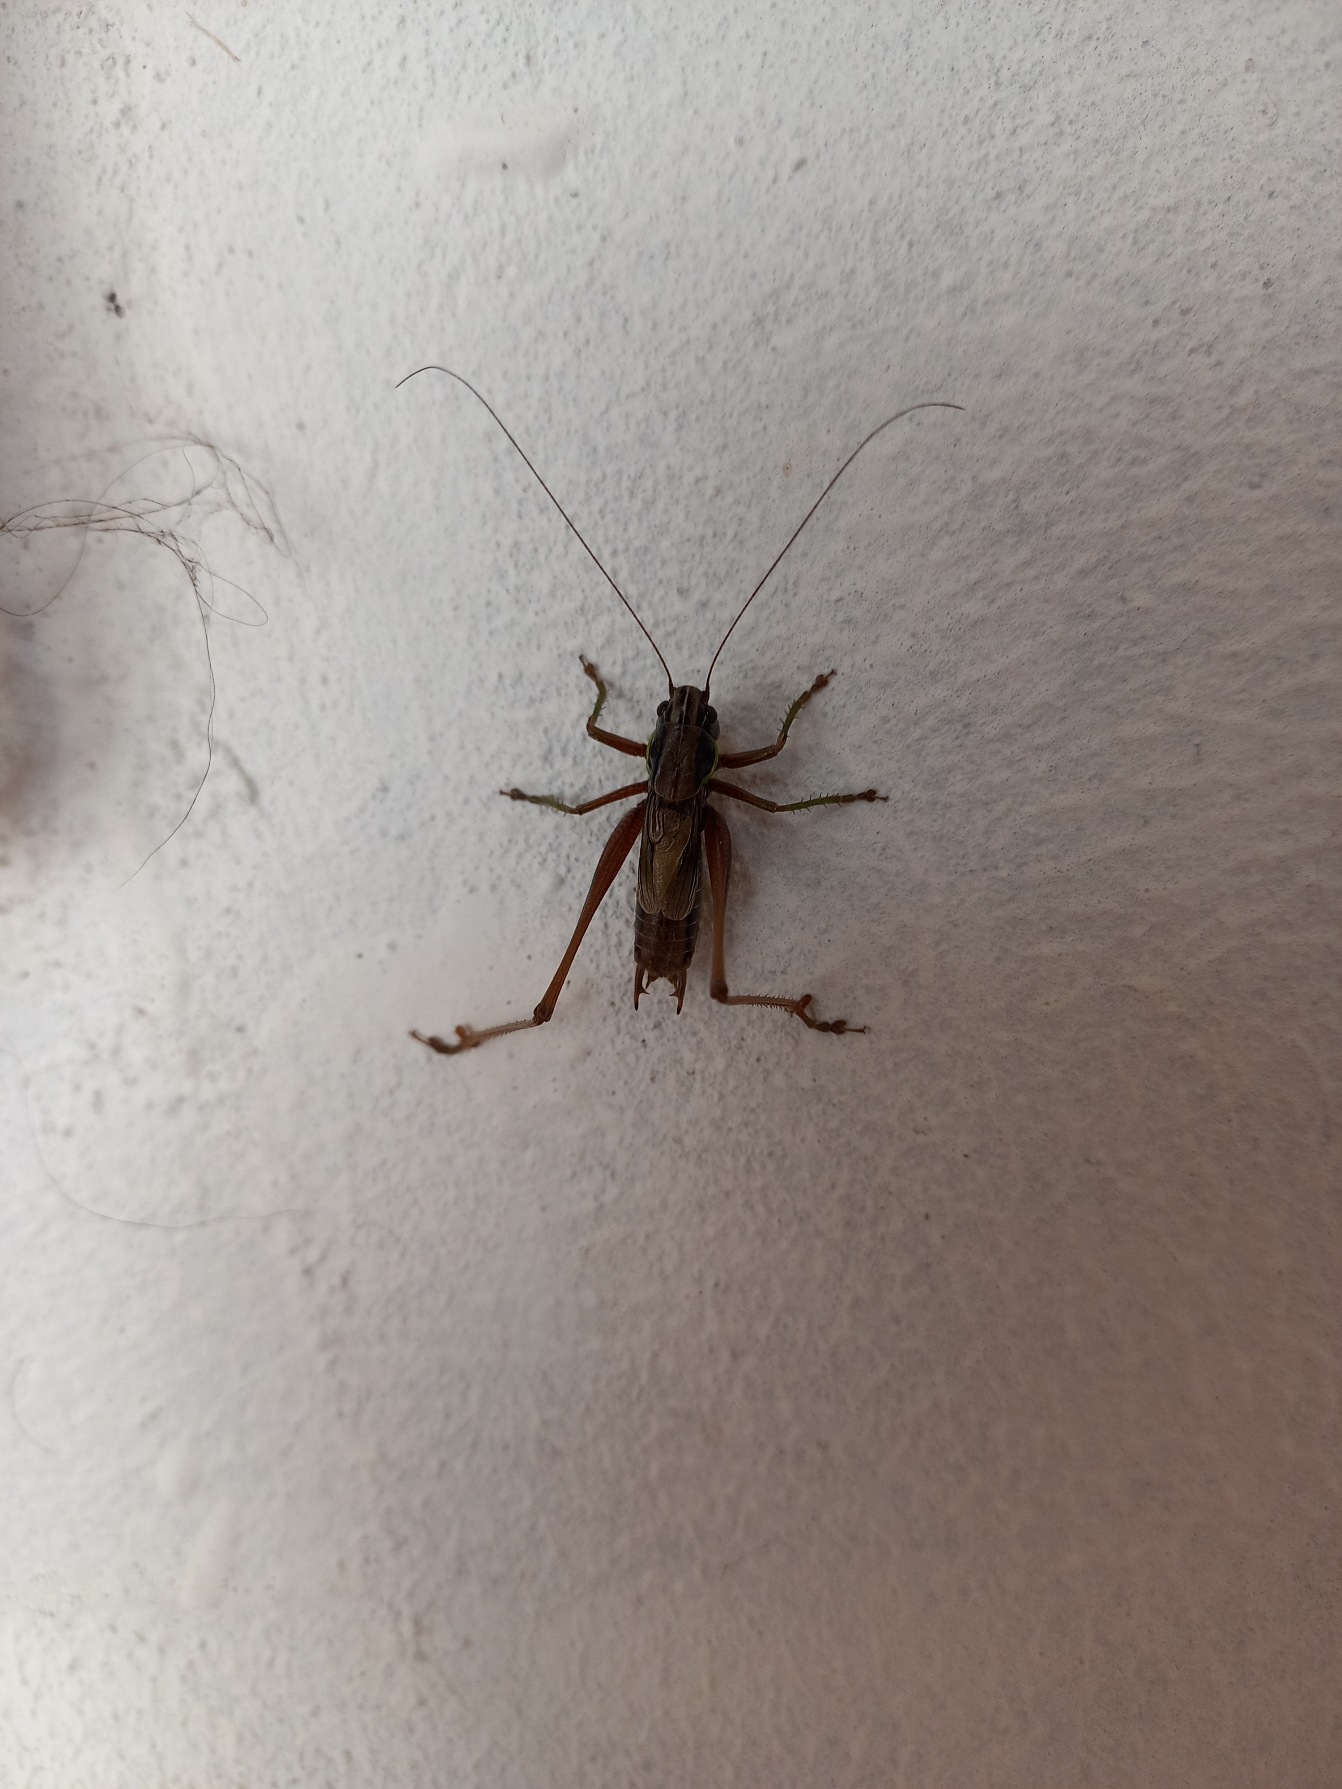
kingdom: Animalia
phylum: Arthropoda
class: Insecta
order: Orthoptera
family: Tettigoniidae
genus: Pholidoptera
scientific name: Pholidoptera griseoaptera
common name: Buskgræshoppe
